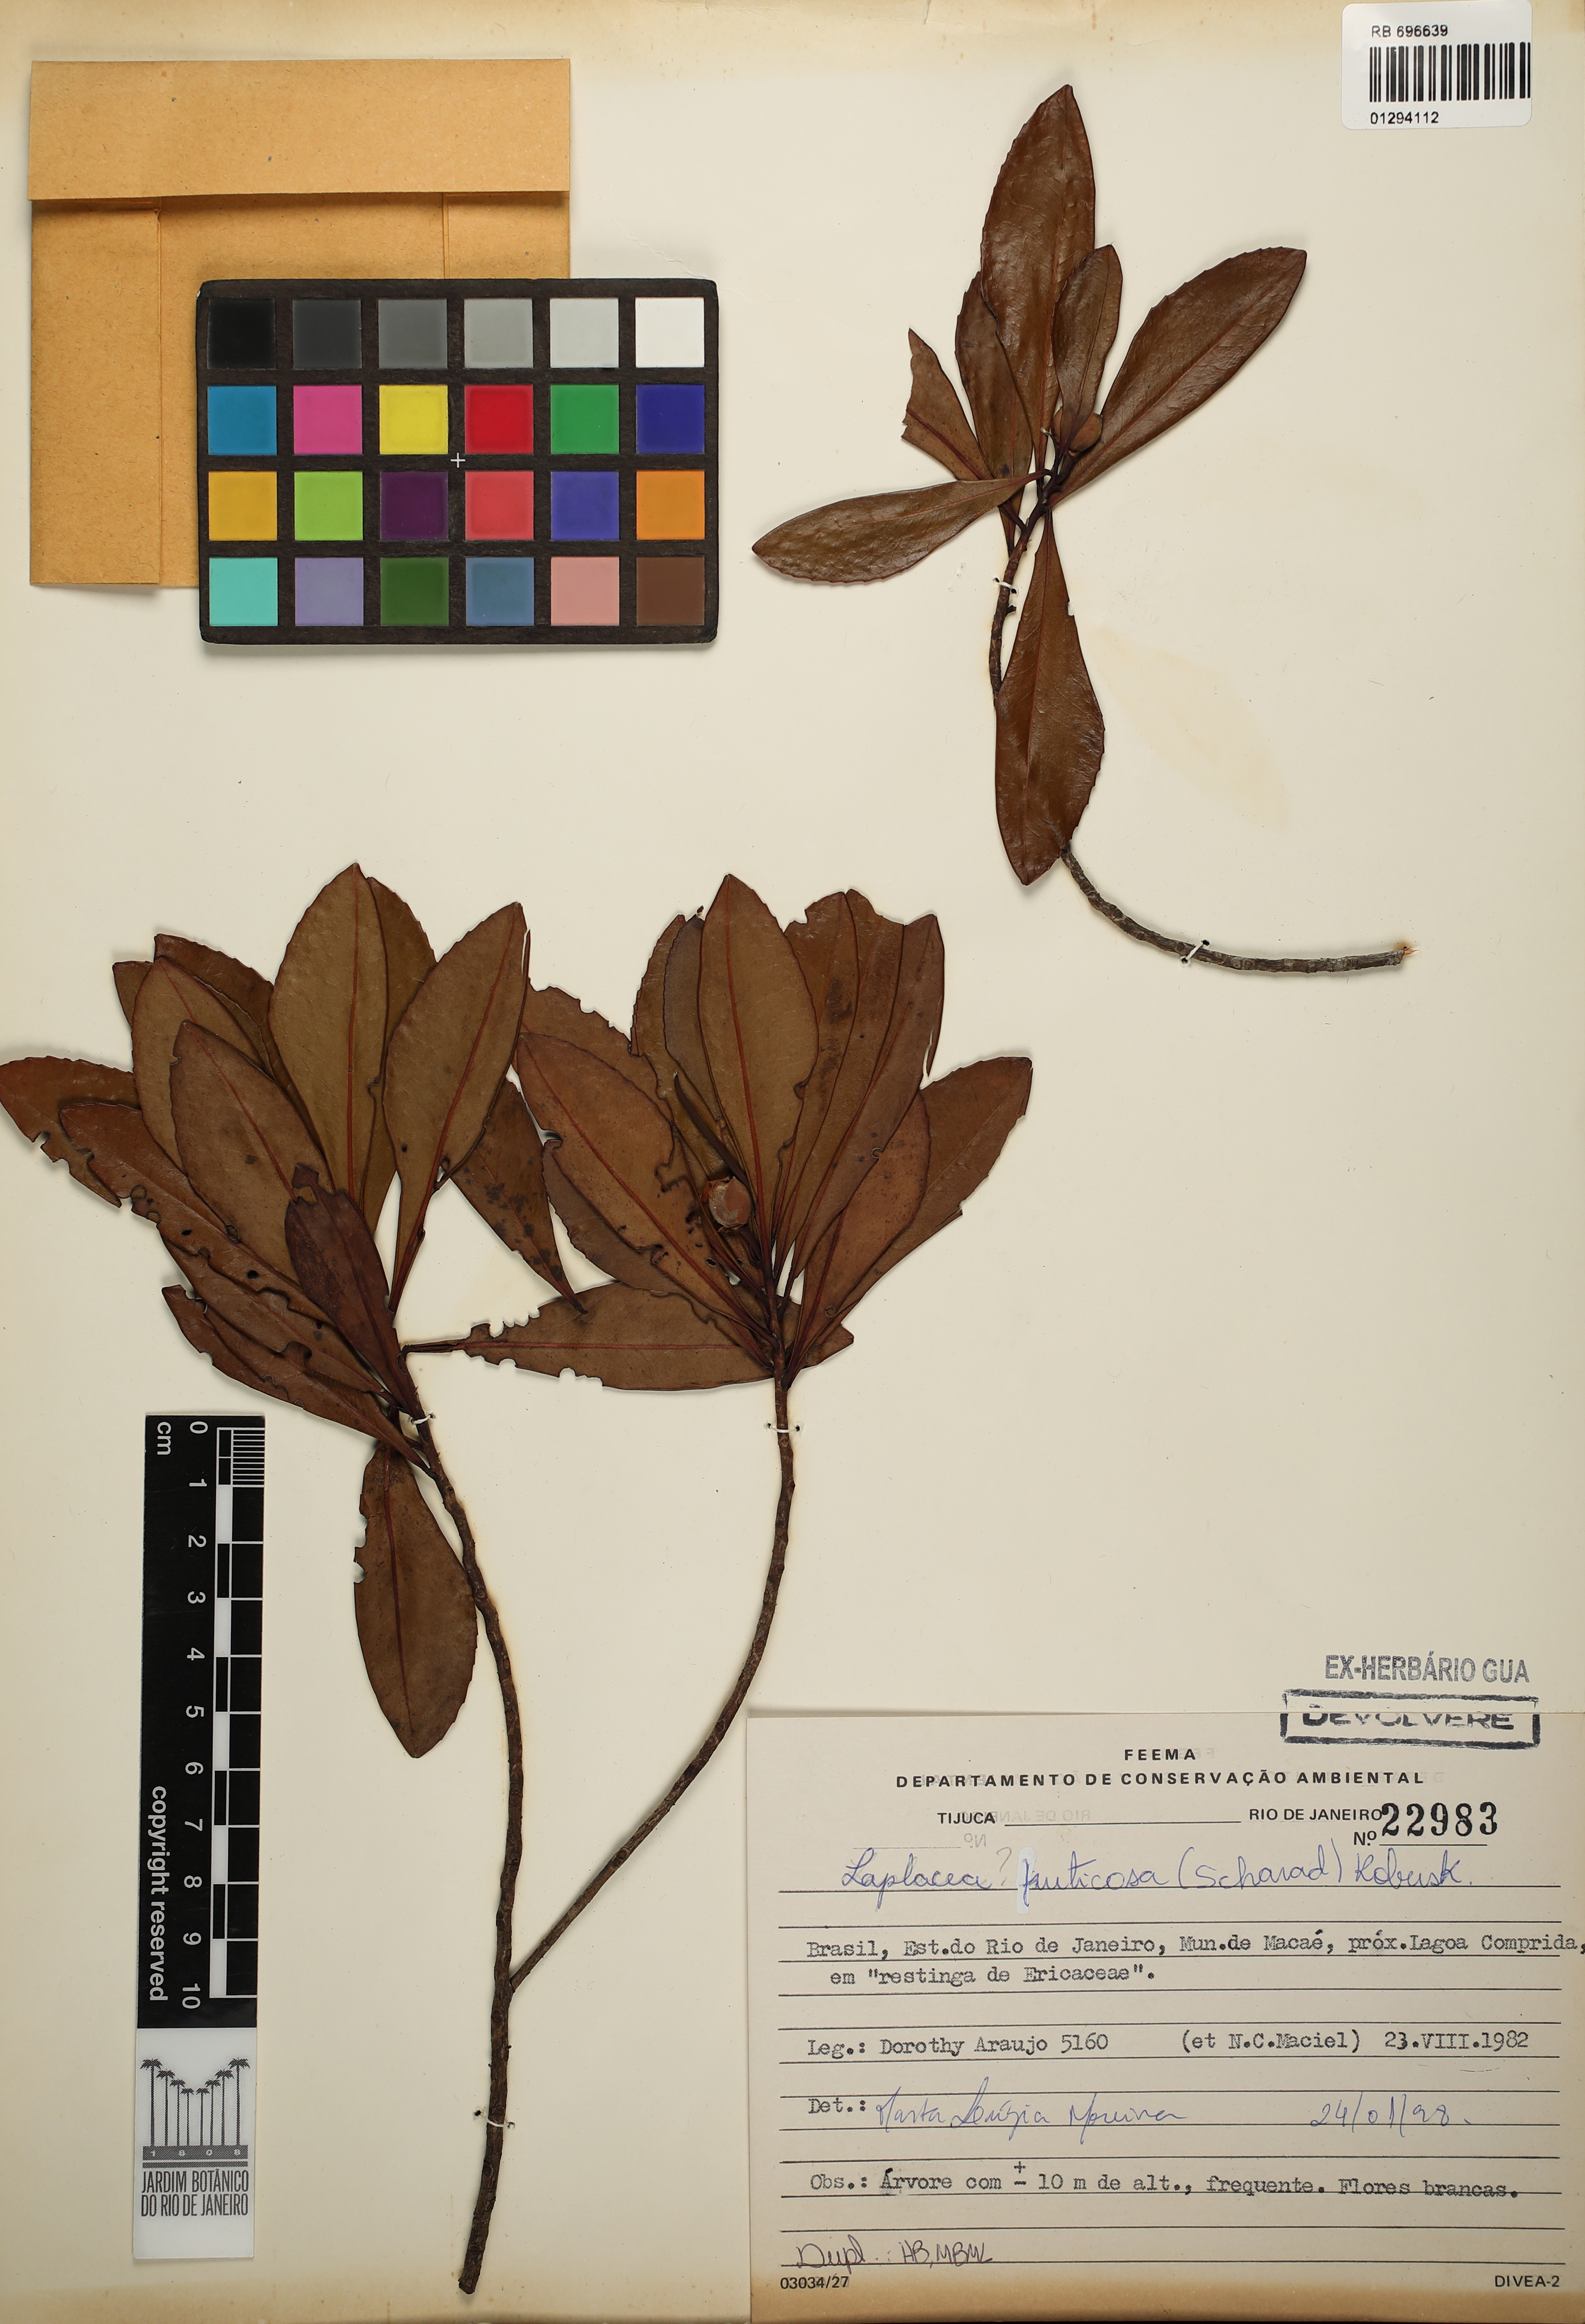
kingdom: Plantae
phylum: Tracheophyta
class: Magnoliopsida
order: Ericales
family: Theaceae
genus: Gordonia
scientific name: Gordonia fruticosa
